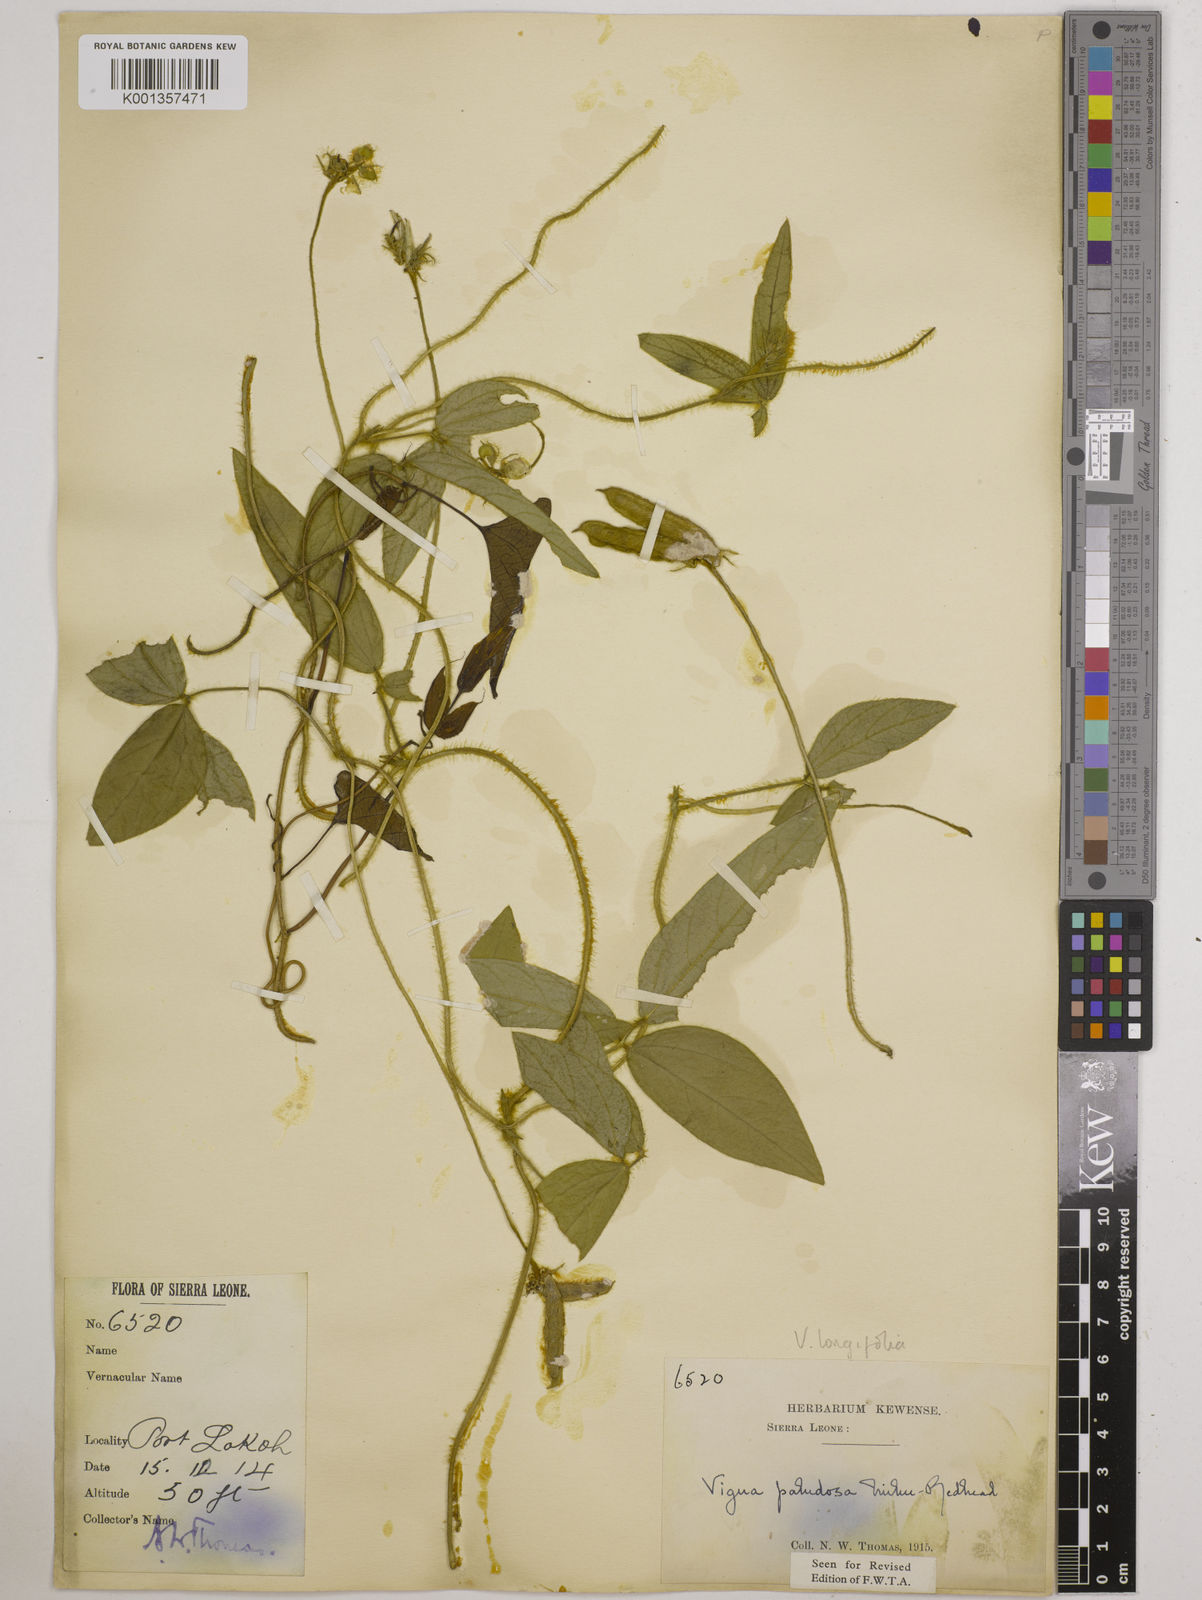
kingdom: Plantae
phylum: Tracheophyta
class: Magnoliopsida
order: Fabales
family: Fabaceae
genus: Vigna
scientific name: Vigna longifolia
